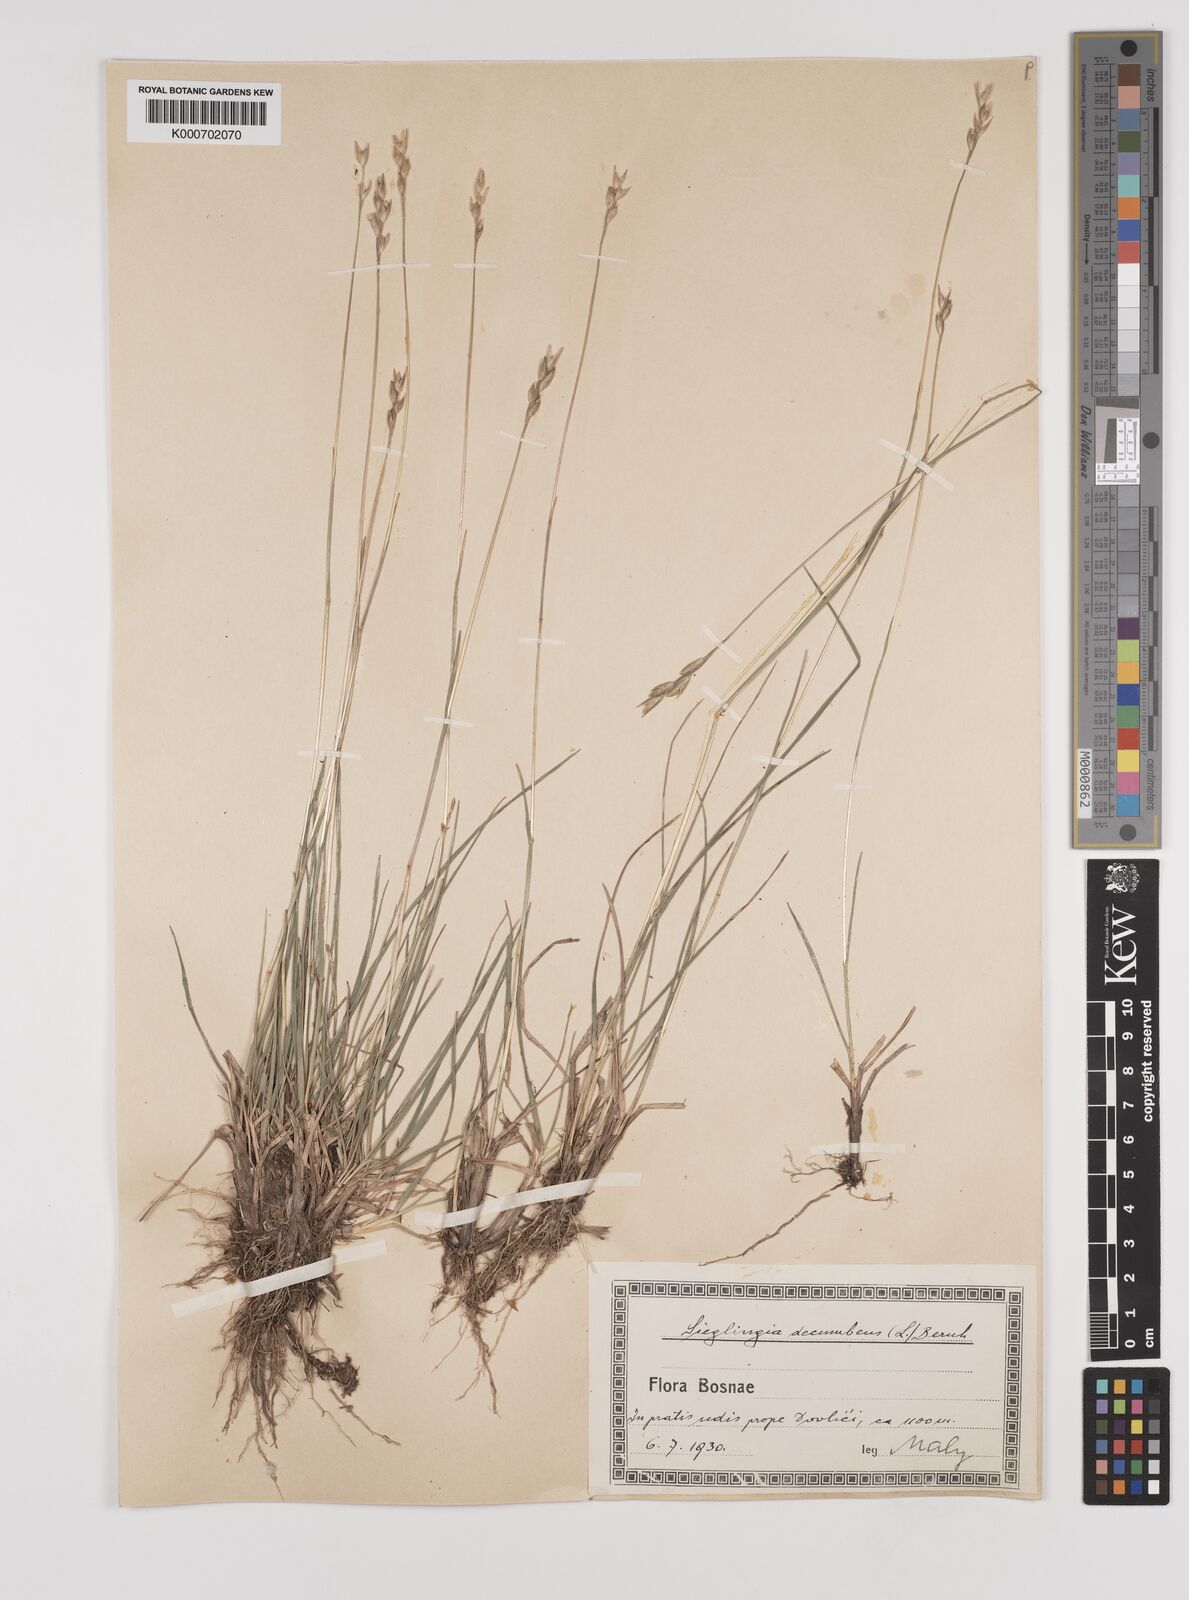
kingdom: Plantae
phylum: Tracheophyta
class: Liliopsida
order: Poales
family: Poaceae
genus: Danthonia
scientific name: Danthonia decumbens
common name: Common heathgrass
